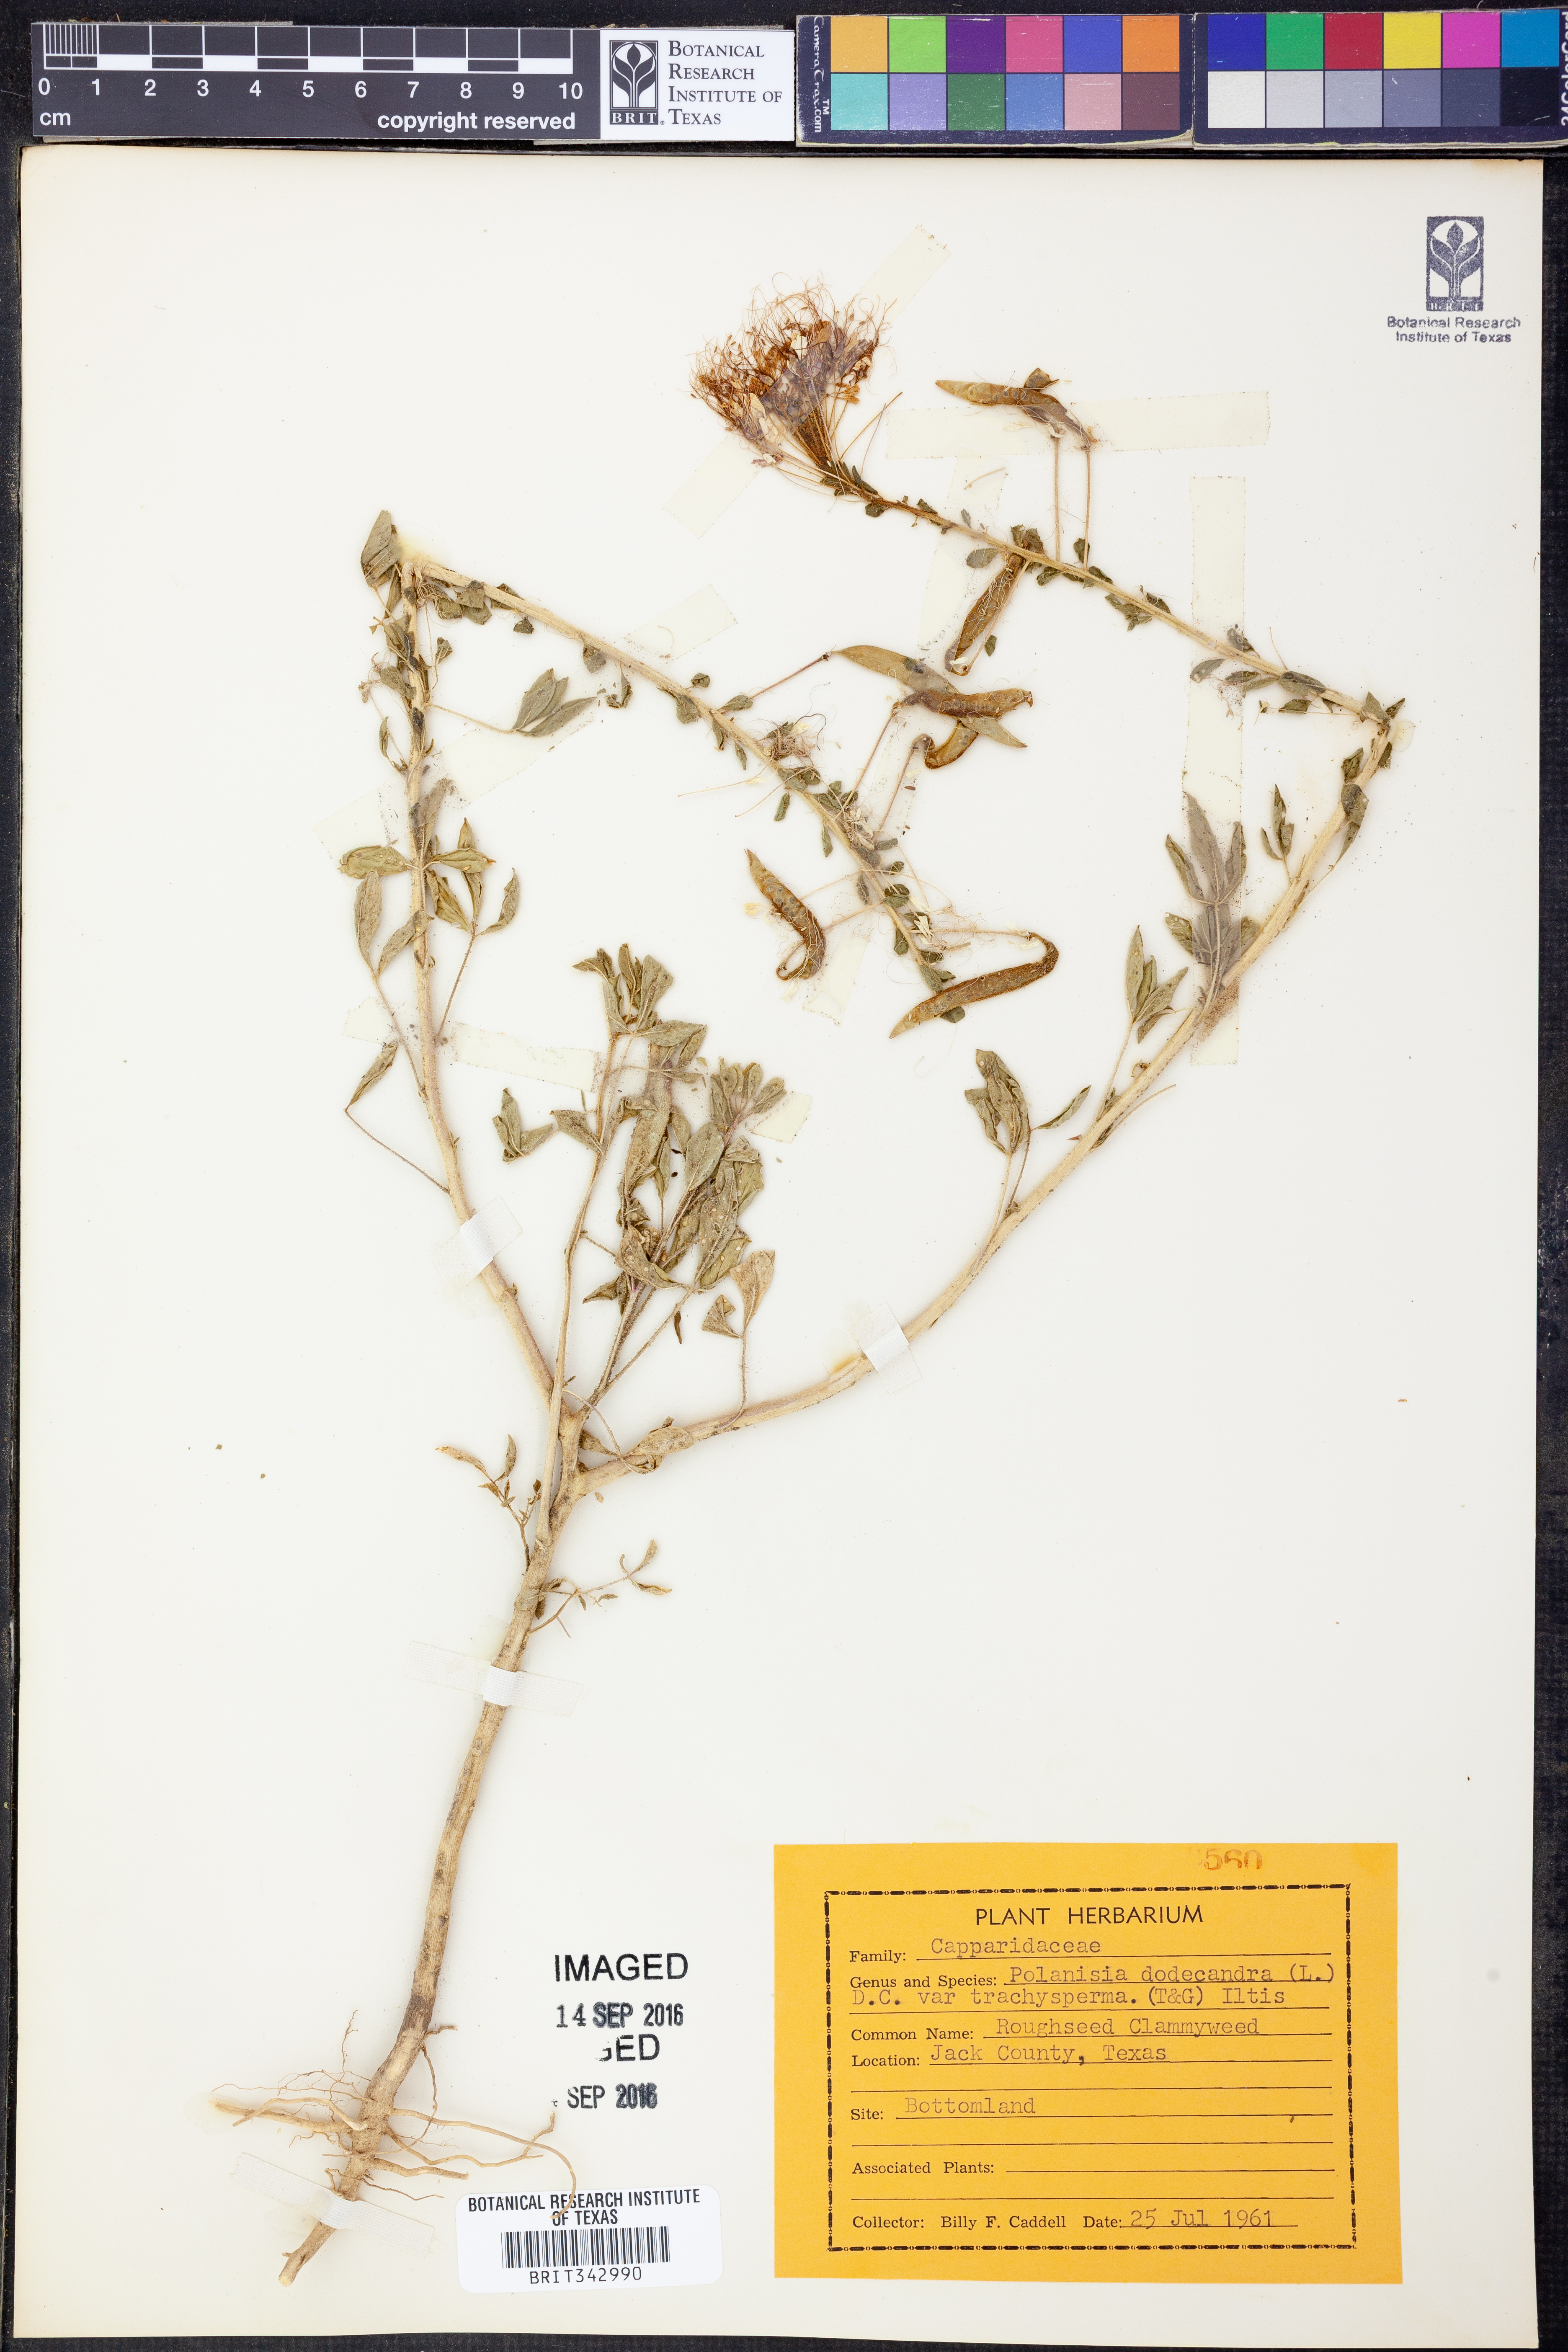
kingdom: Plantae
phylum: Tracheophyta
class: Magnoliopsida
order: Brassicales
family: Cleomaceae
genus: Polanisia
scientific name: Polanisia trachysperma
